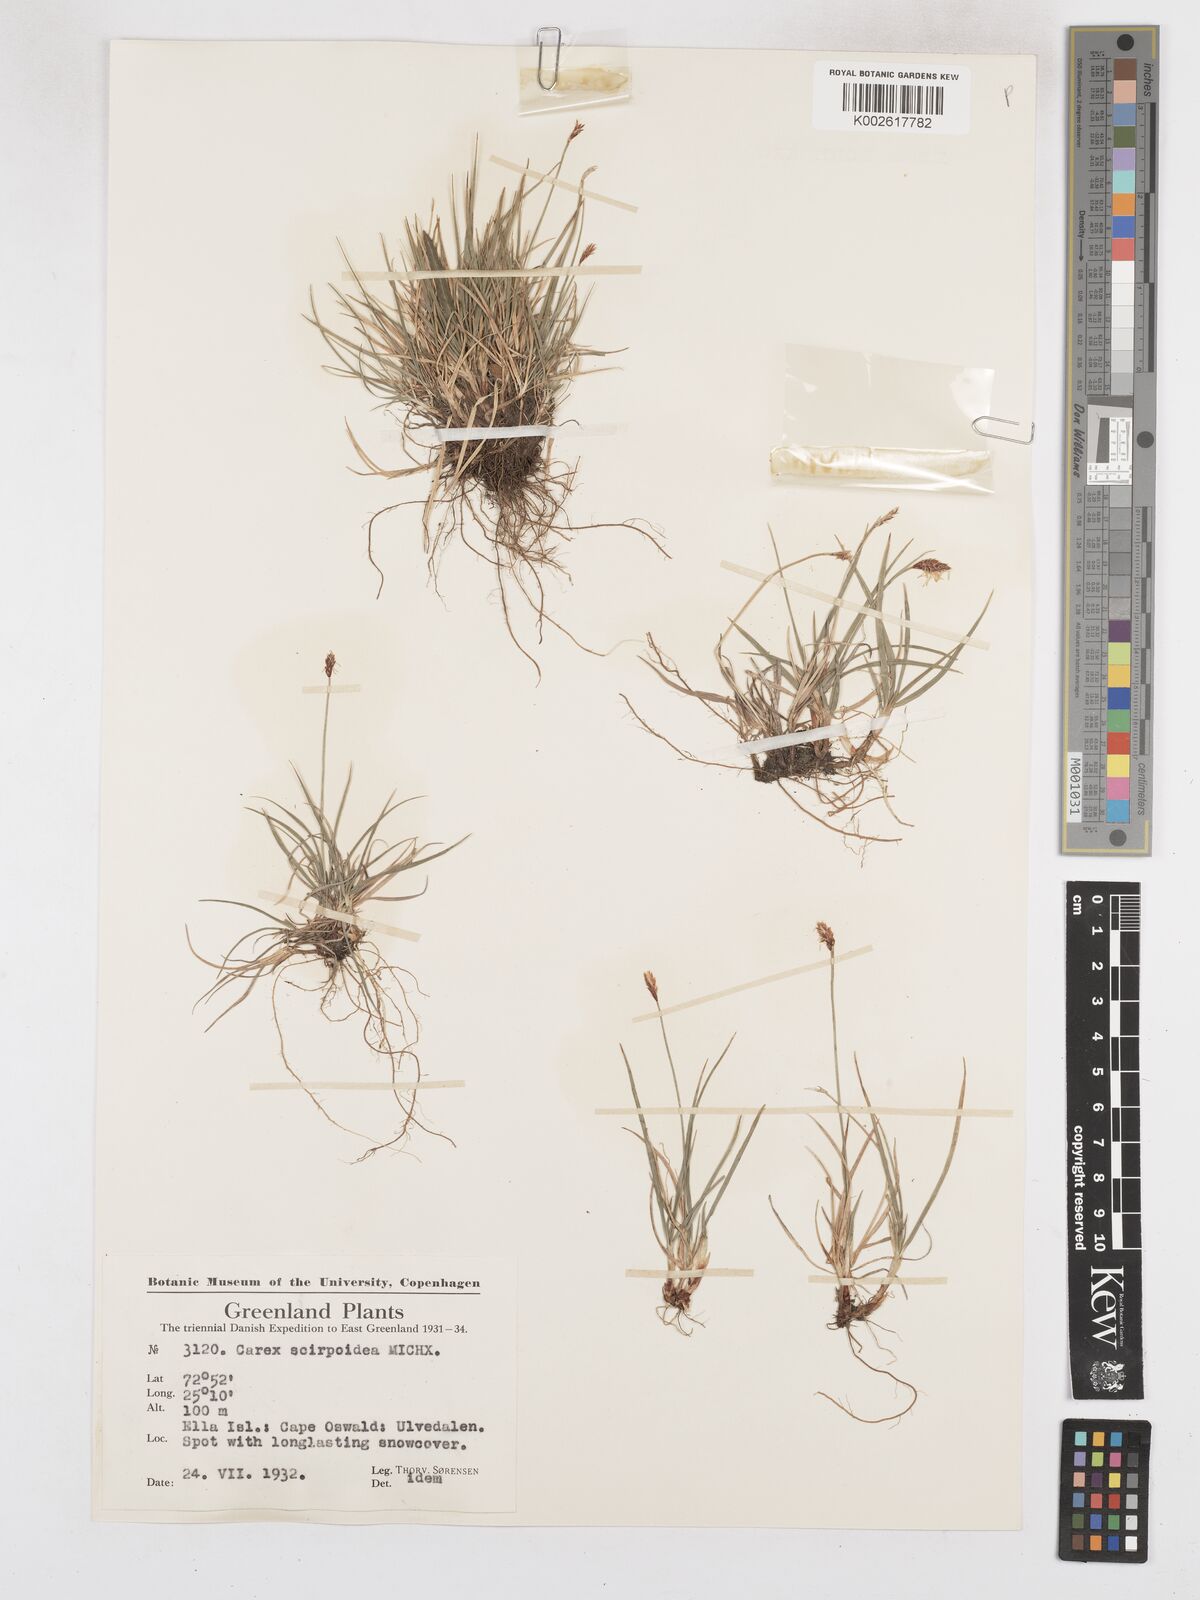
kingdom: Plantae
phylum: Tracheophyta
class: Liliopsida
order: Poales
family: Cyperaceae
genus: Carex
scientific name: Carex scirpoidea
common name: Canada single-spike sedge
